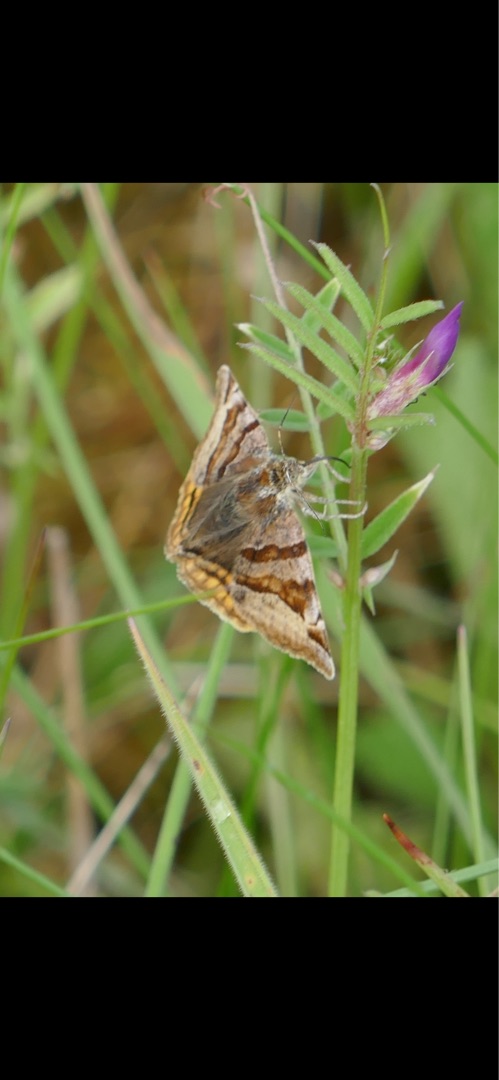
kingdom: Animalia
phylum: Arthropoda
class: Insecta
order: Lepidoptera
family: Erebidae
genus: Euclidia
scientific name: Euclidia glyphica
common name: Brun kløverugle
